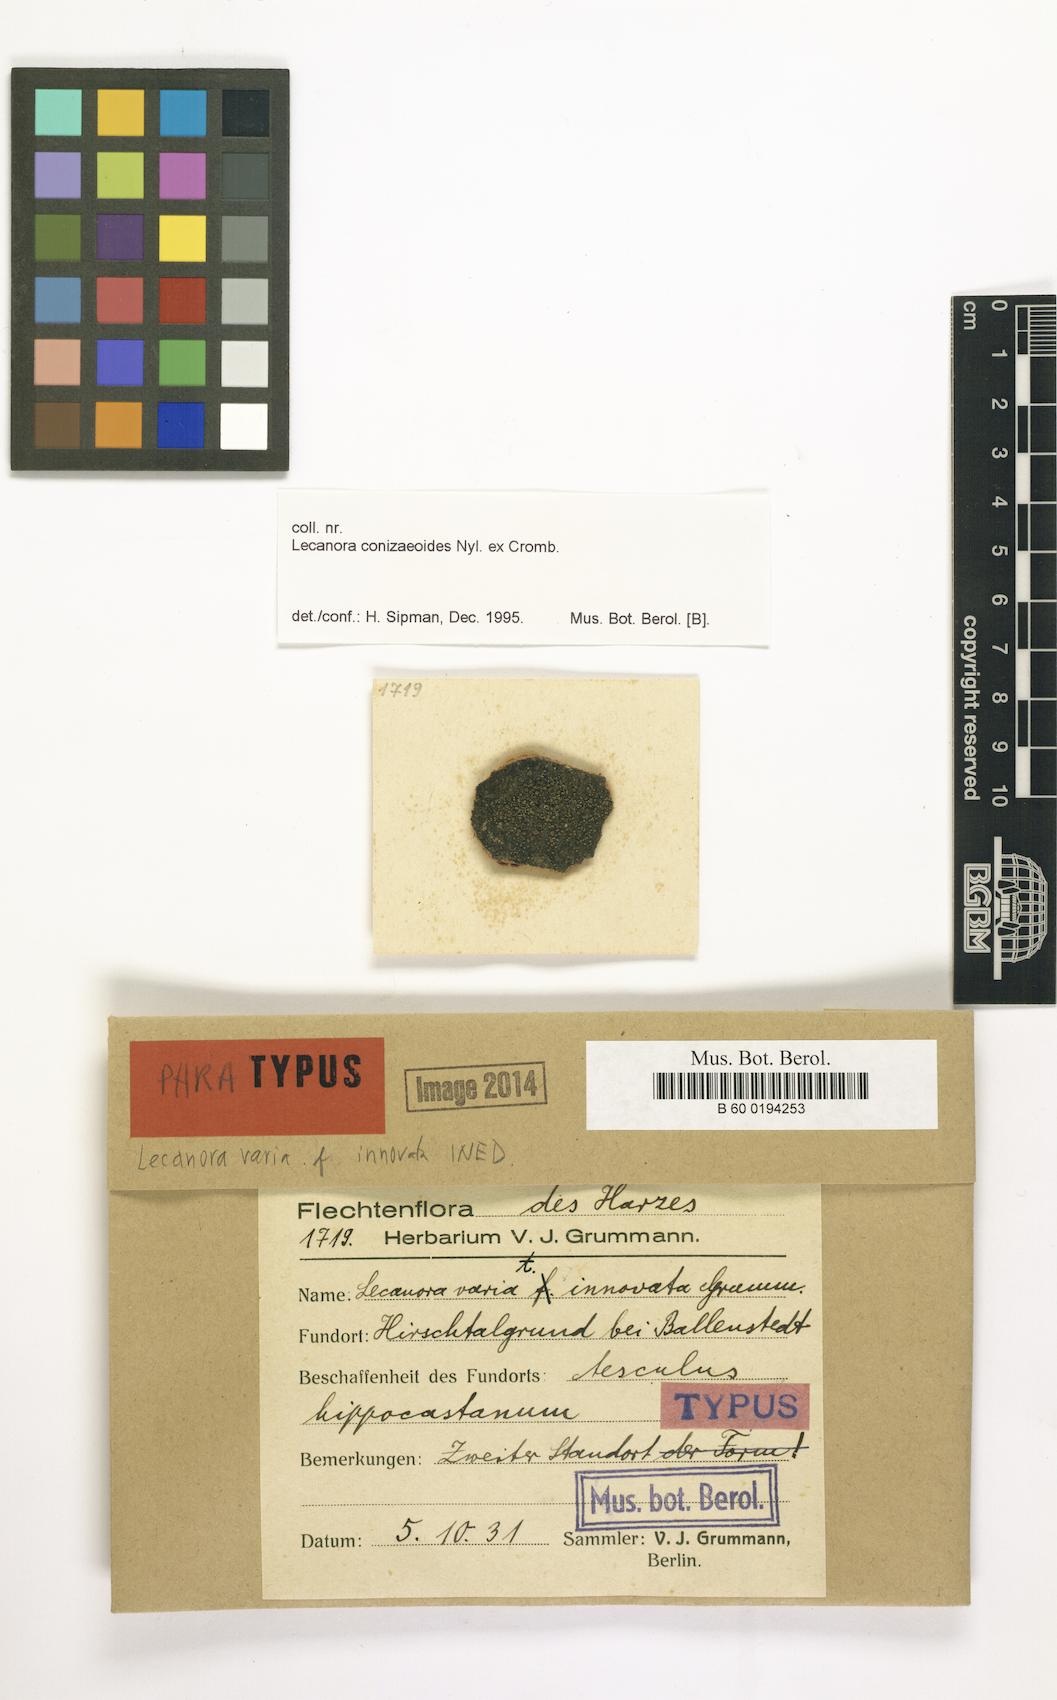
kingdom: Fungi
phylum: Ascomycota
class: Lecanoromycetes
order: Lecanorales
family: Lecanoraceae
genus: Straminella
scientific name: Straminella varia
